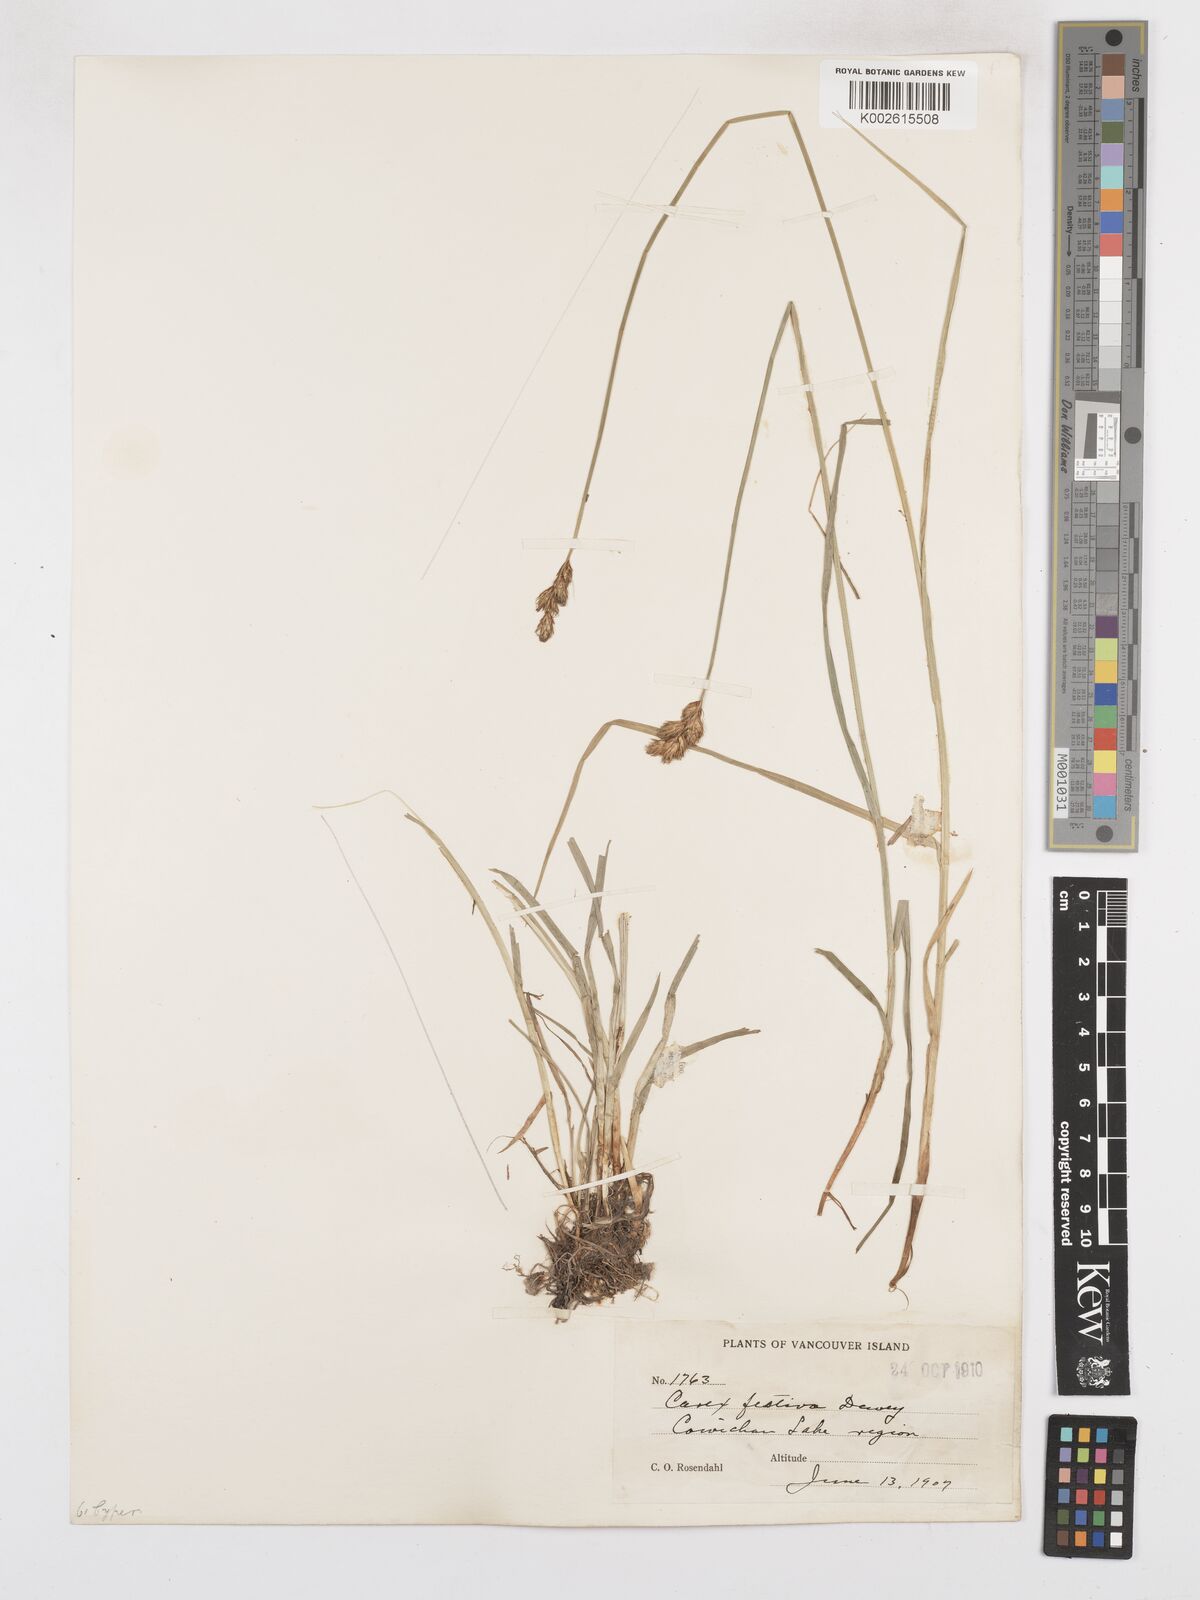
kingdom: Plantae
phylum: Tracheophyta
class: Liliopsida
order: Poales
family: Cyperaceae
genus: Carex
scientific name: Carex macloviana
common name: Falkland island sedge
